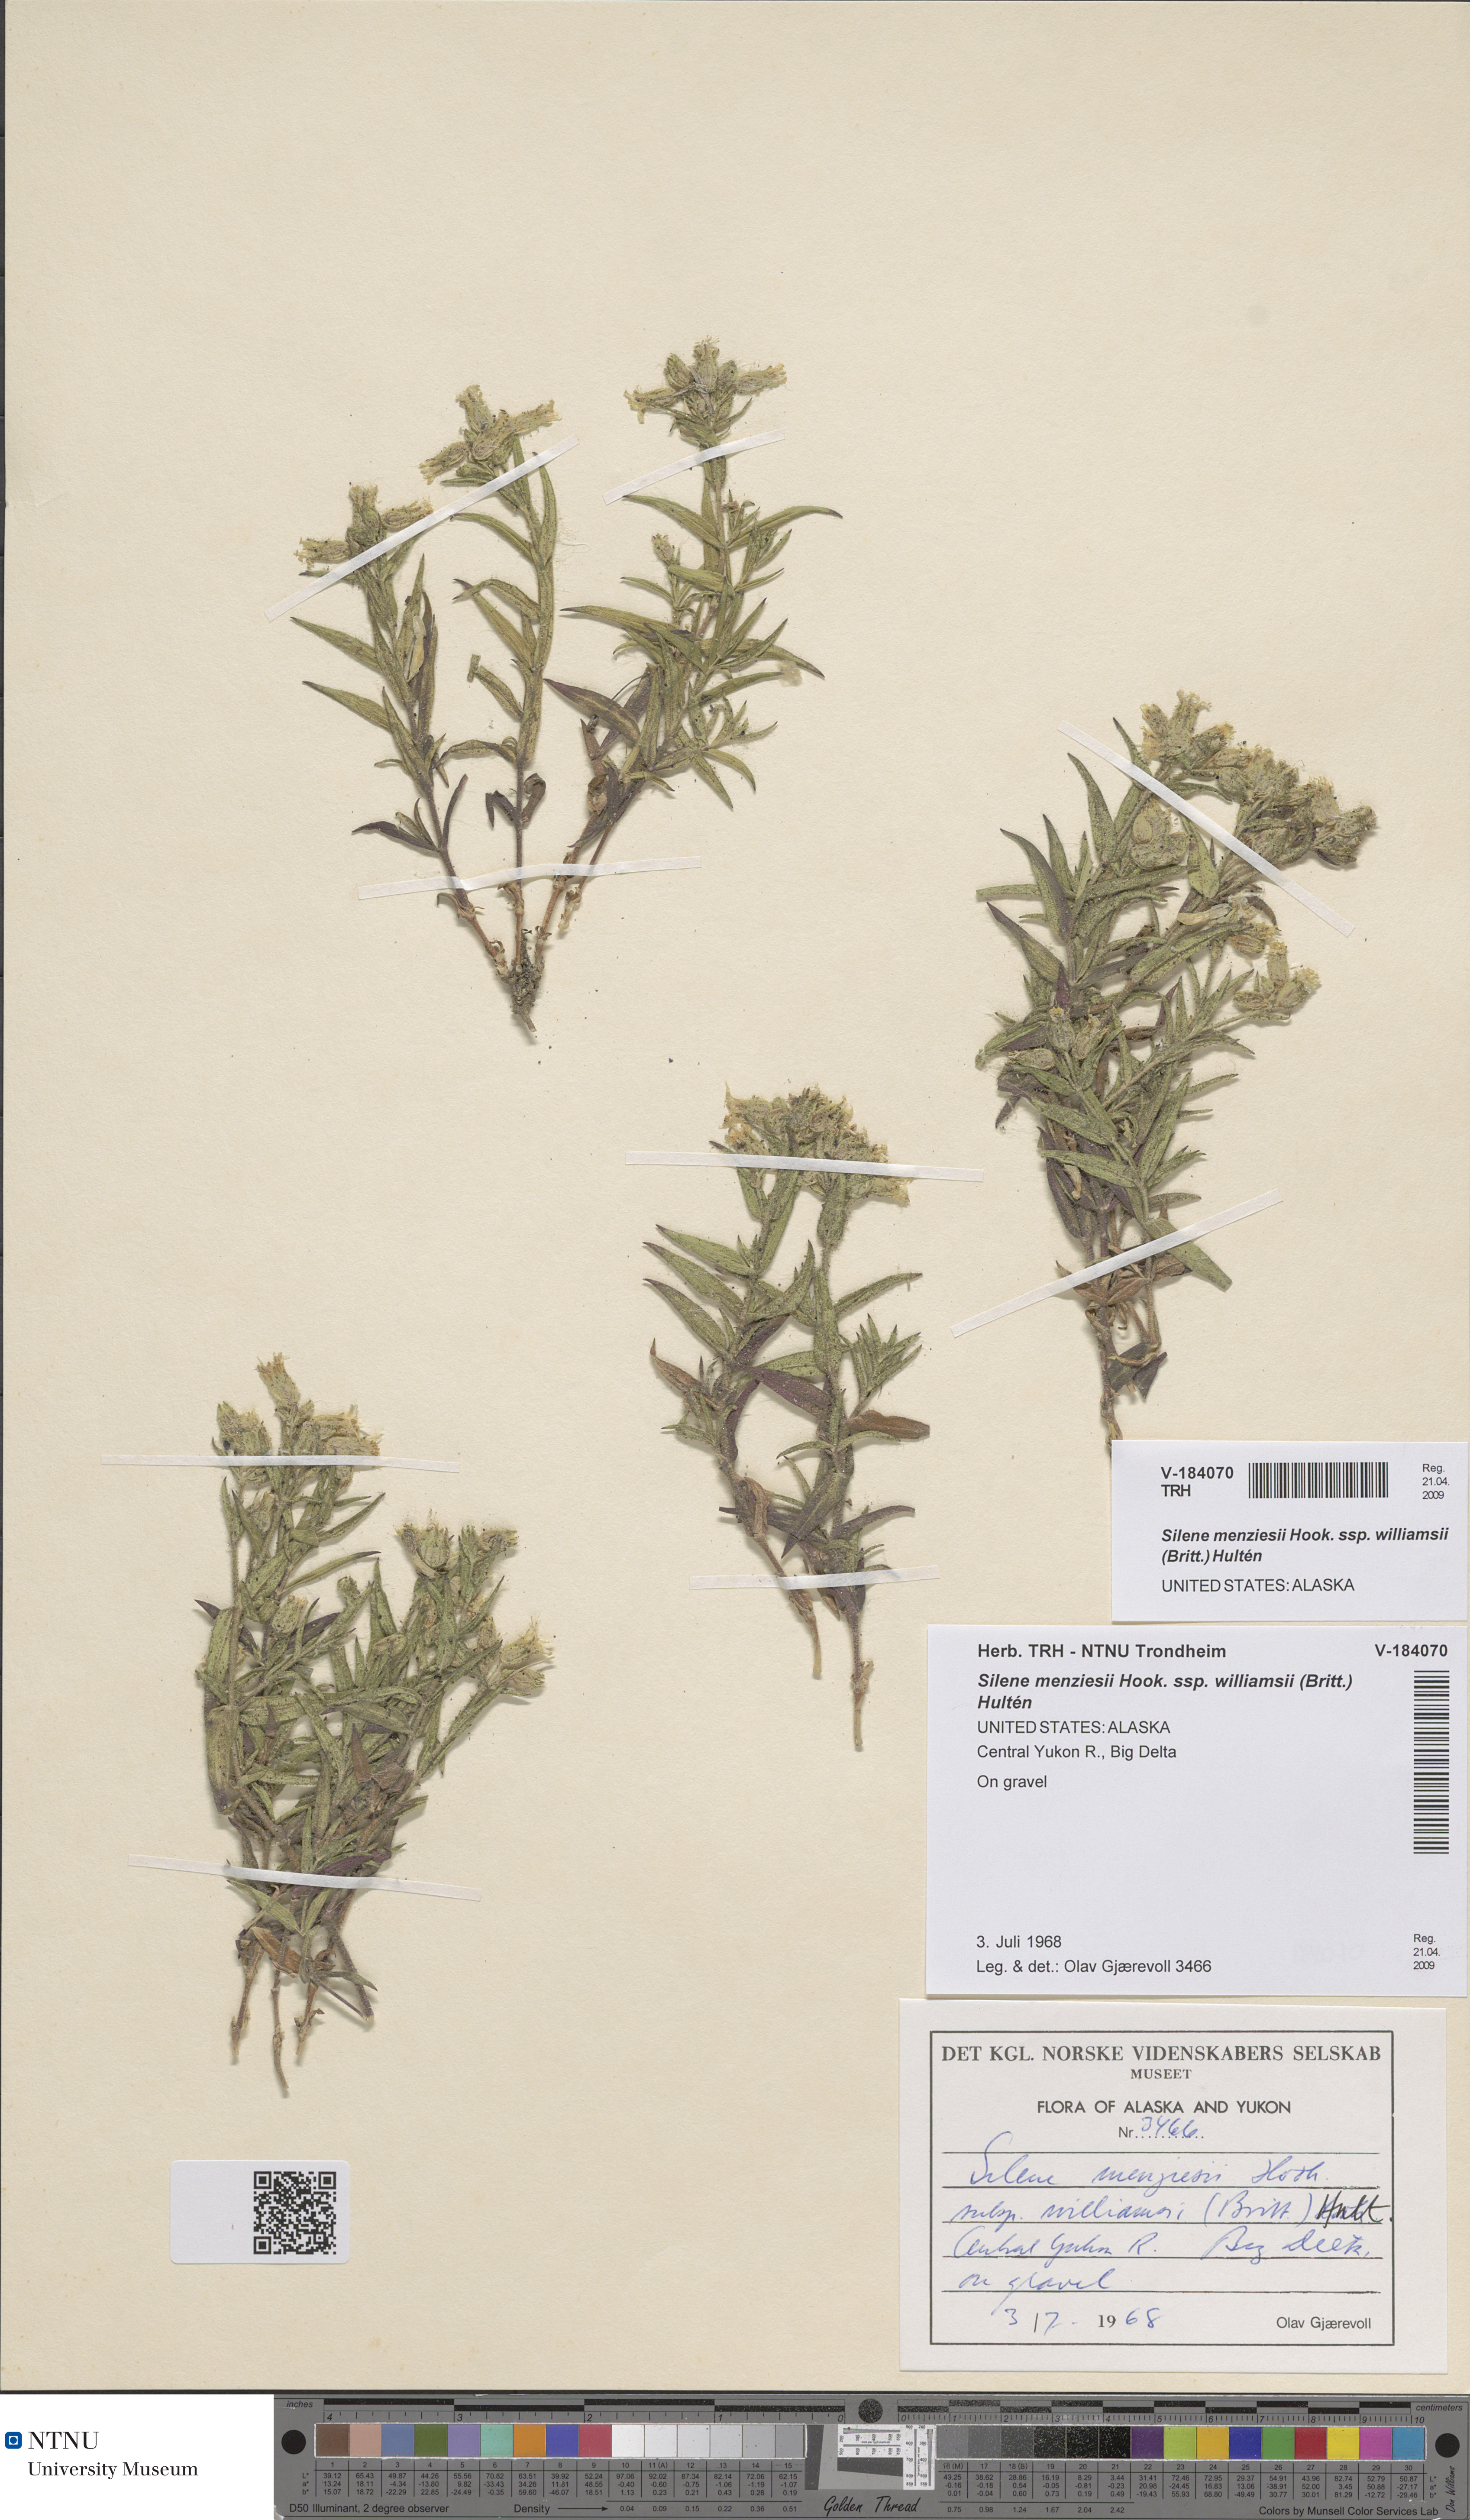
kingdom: Plantae
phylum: Tracheophyta
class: Magnoliopsida
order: Caryophyllales
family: Caryophyllaceae
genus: Silene
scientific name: Silene williamsii
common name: Williams' campion
